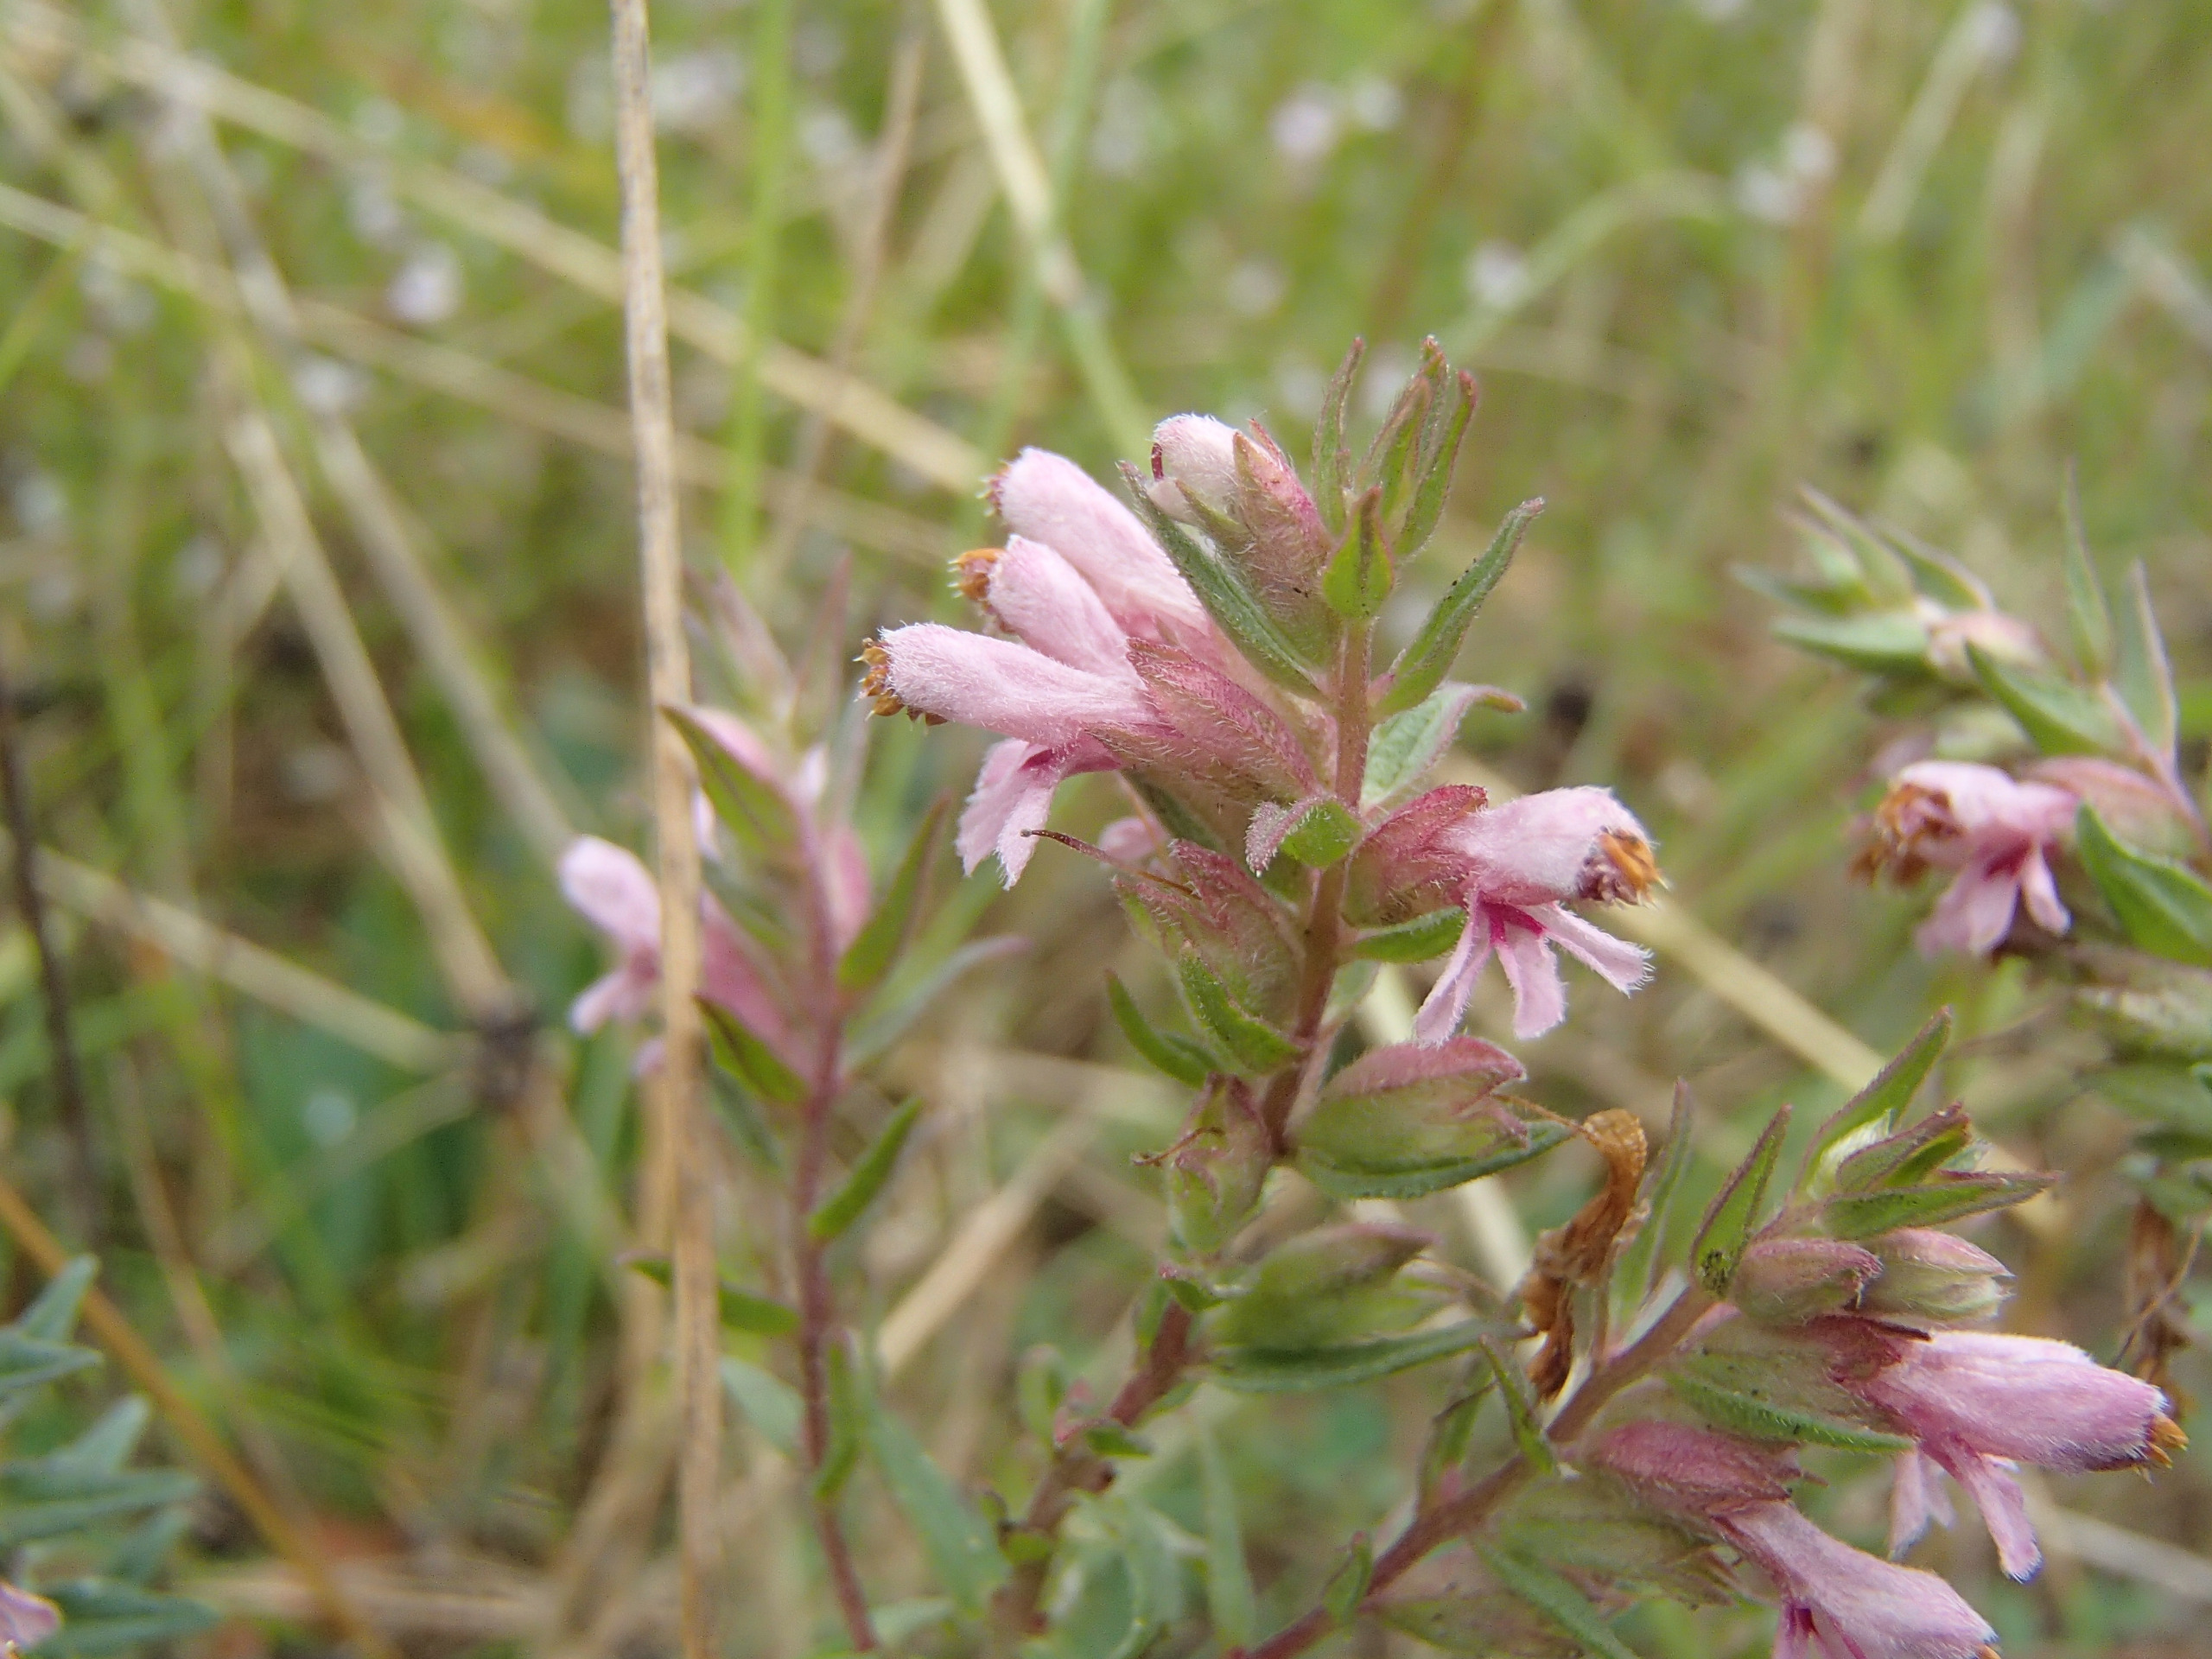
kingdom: Plantae
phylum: Tracheophyta
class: Magnoliopsida
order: Lamiales
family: Orobanchaceae
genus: Odontites
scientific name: Odontites vulgaris
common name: Høst-rødtop
